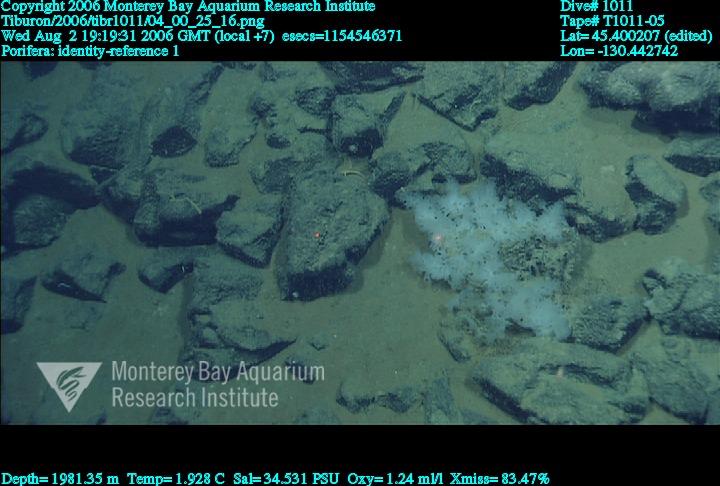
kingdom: Animalia
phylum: Porifera
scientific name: Porifera
